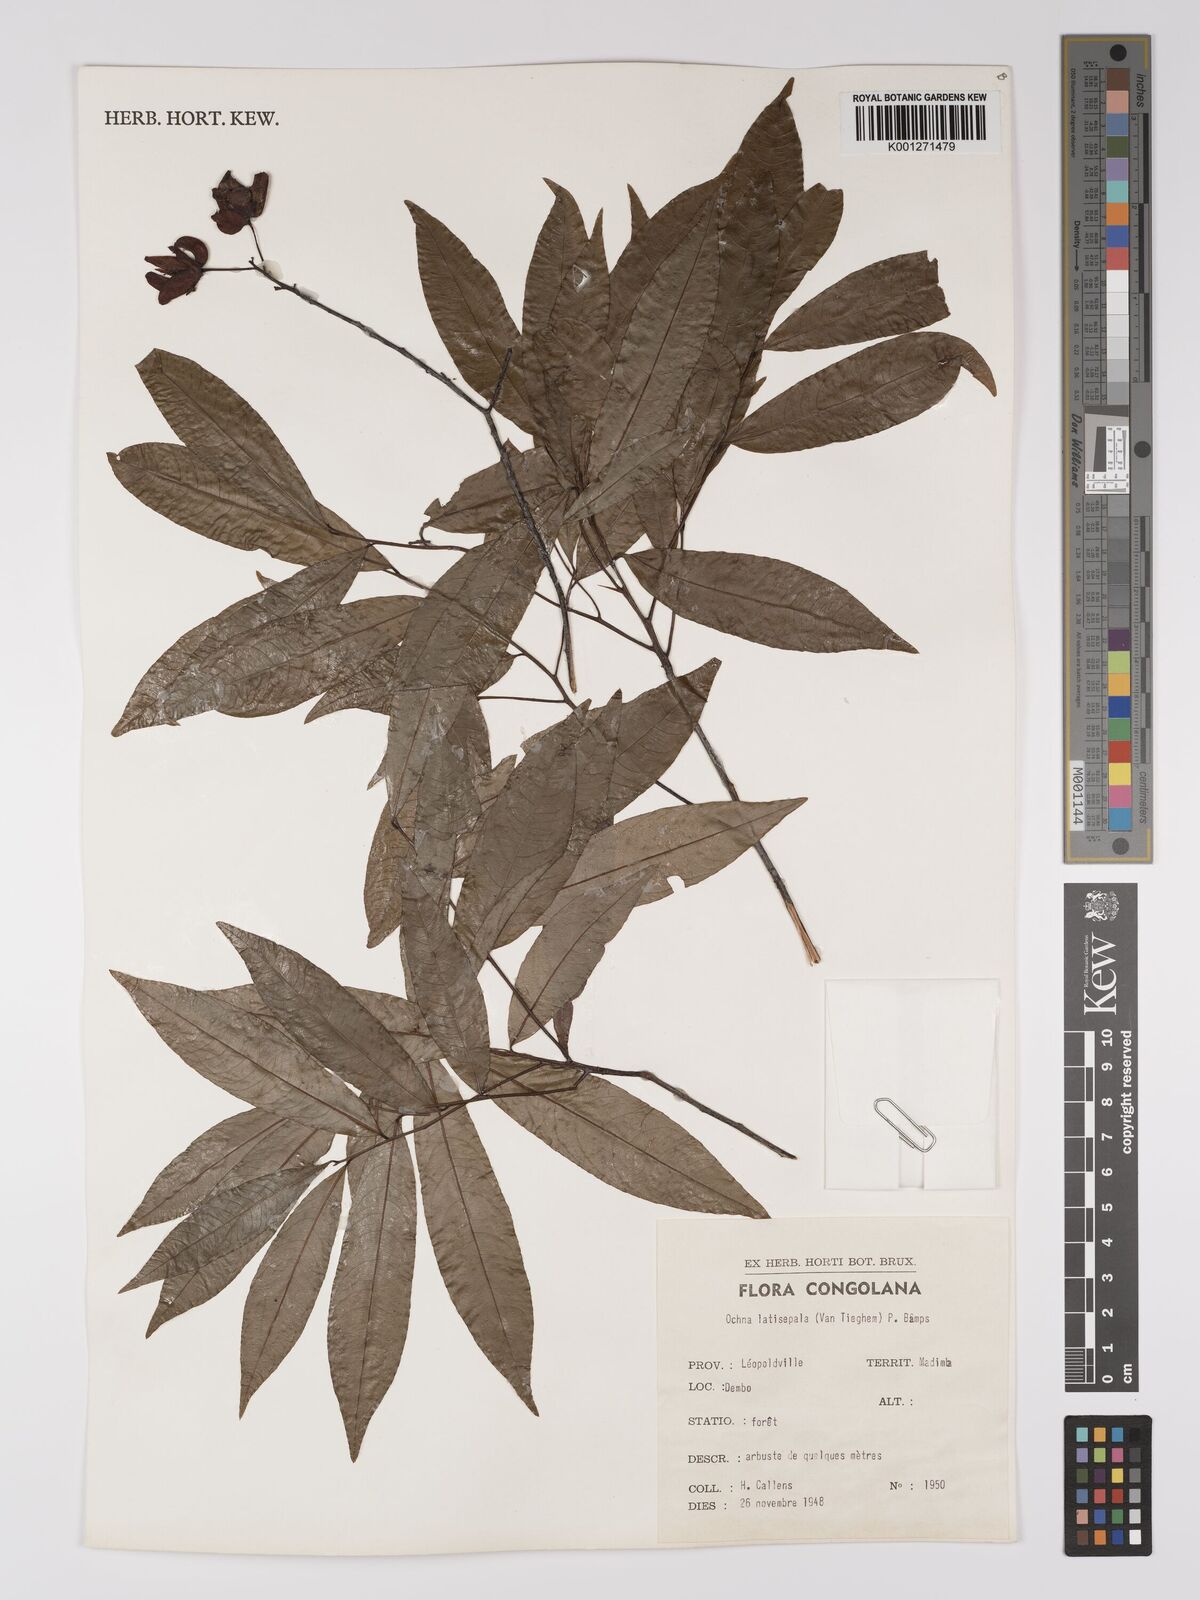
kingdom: Plantae
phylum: Tracheophyta
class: Magnoliopsida
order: Malpighiales
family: Ochnaceae
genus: Ochna
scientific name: Ochna latisepala
